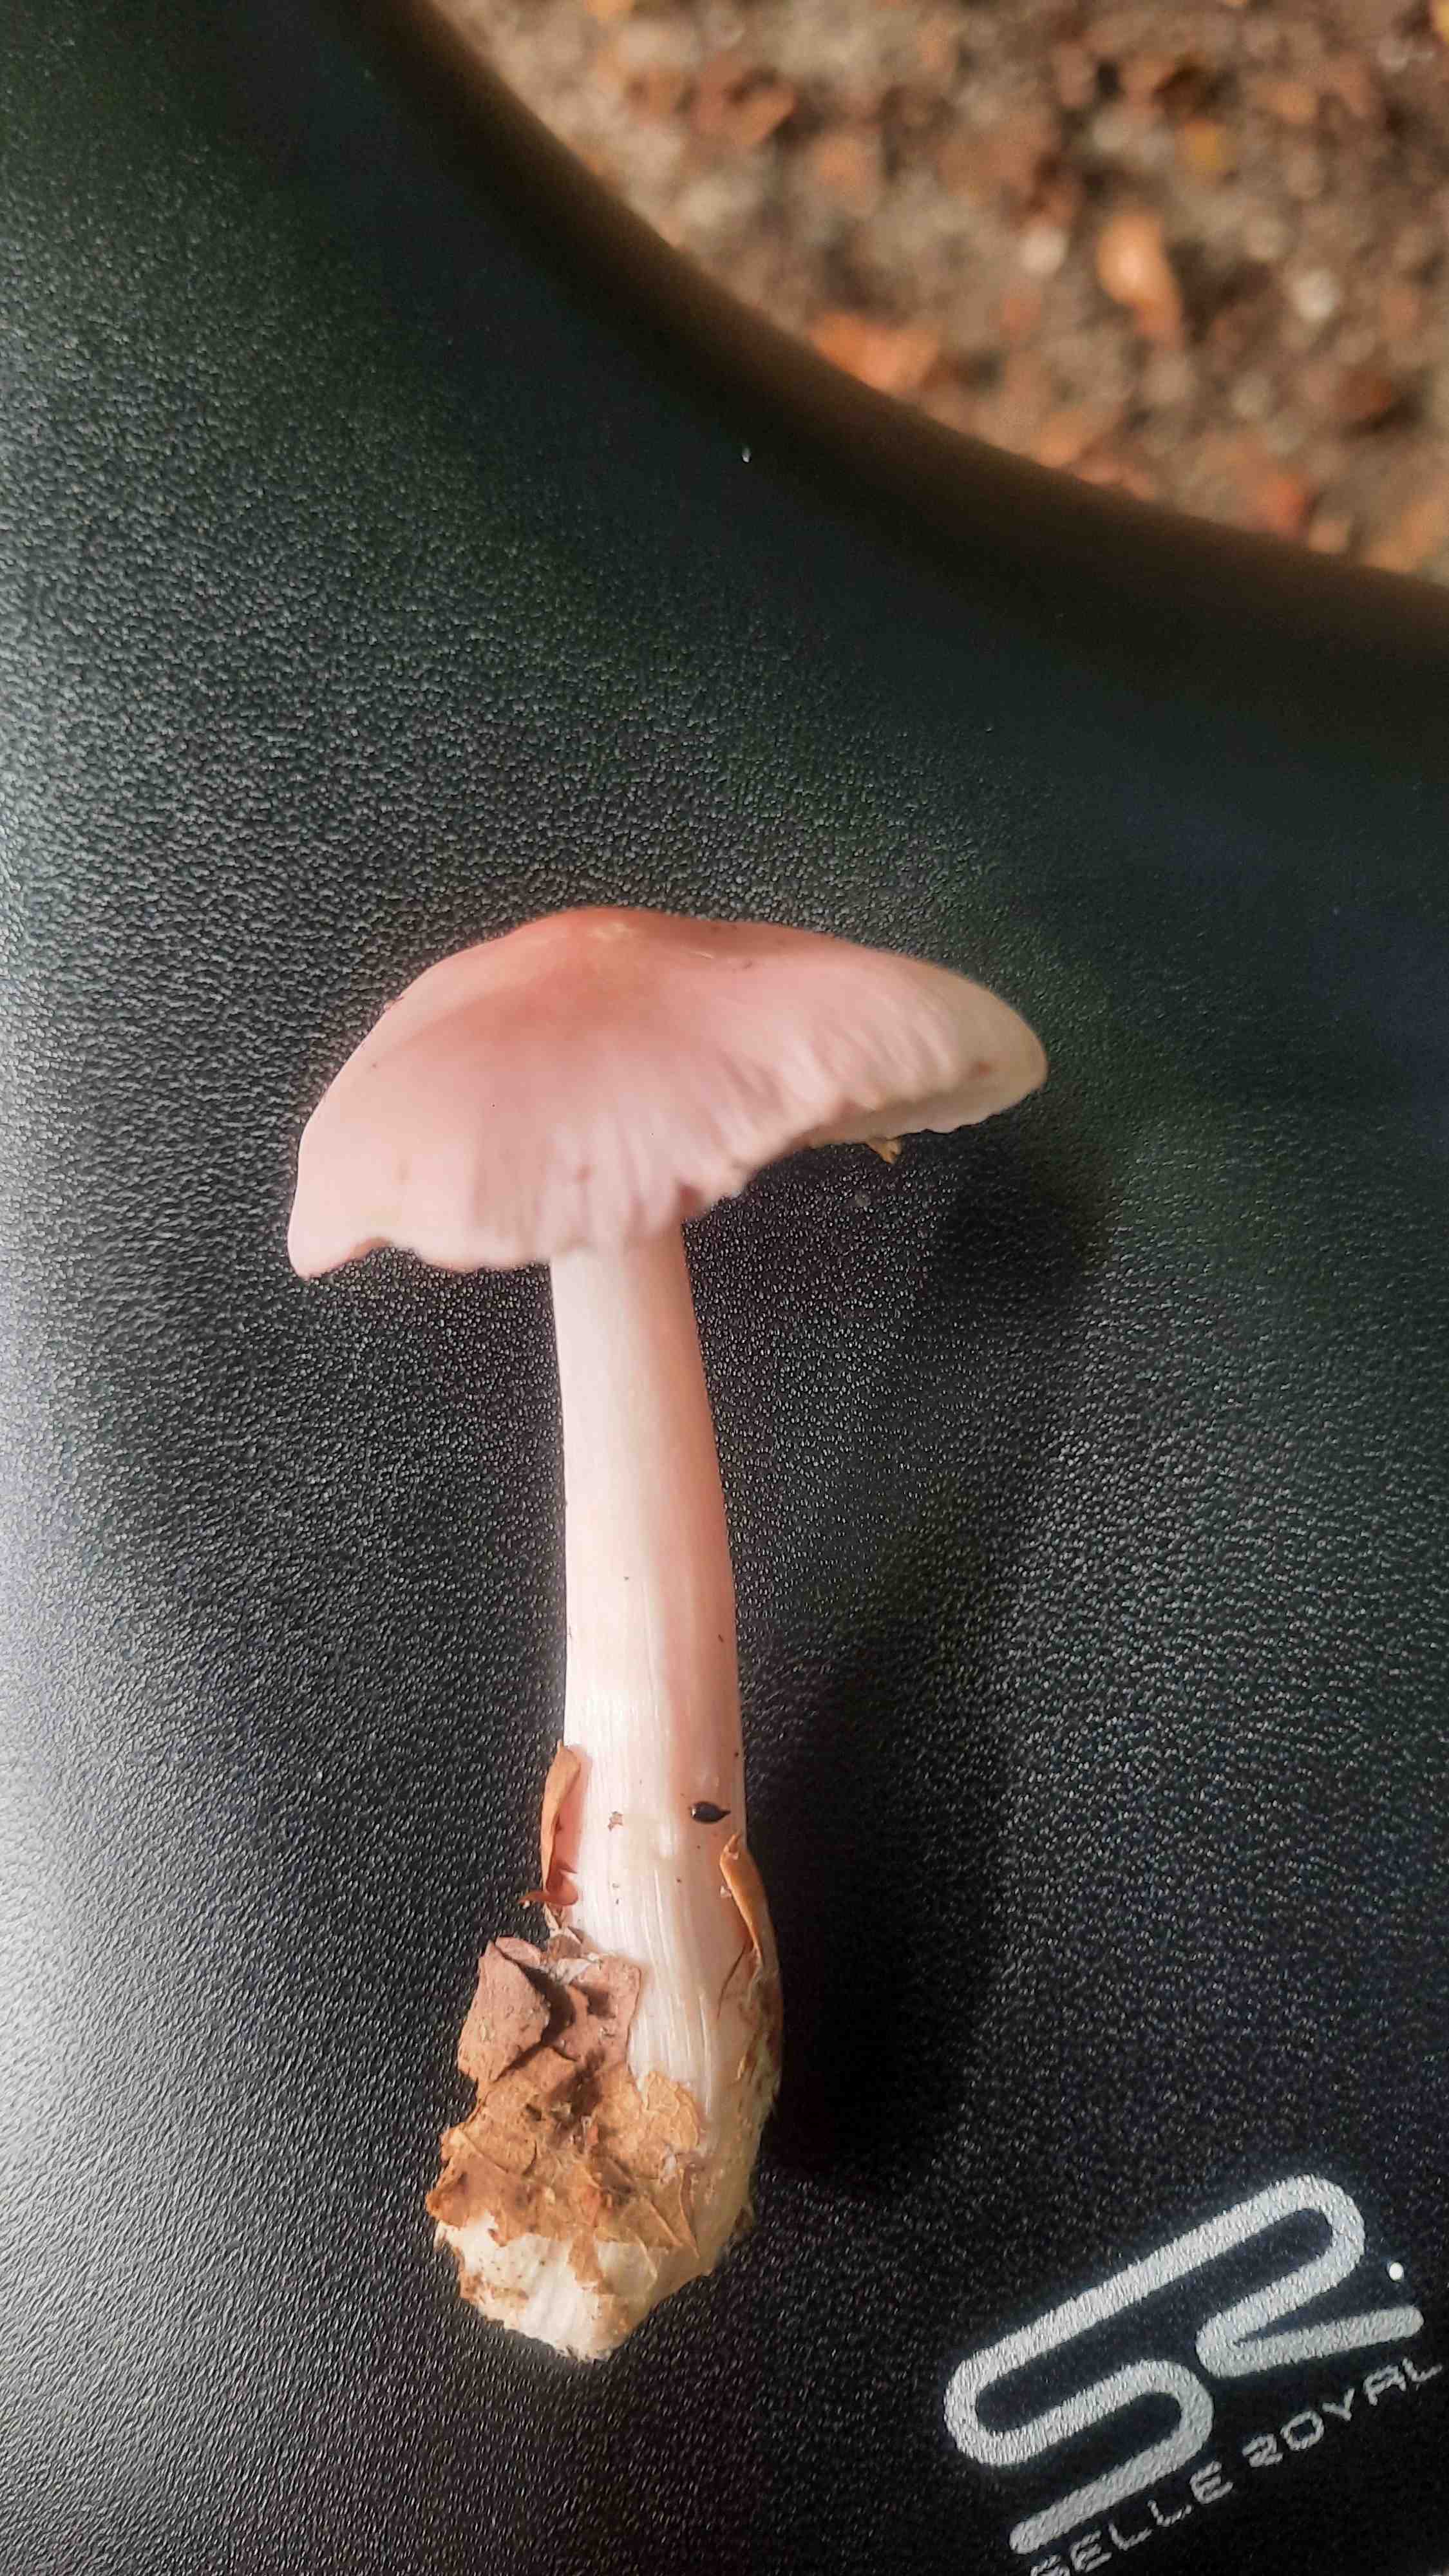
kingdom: Fungi
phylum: Basidiomycota
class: Agaricomycetes
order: Agaricales
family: Mycenaceae
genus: Mycena
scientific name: Mycena rosea
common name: rosa huesvamp
